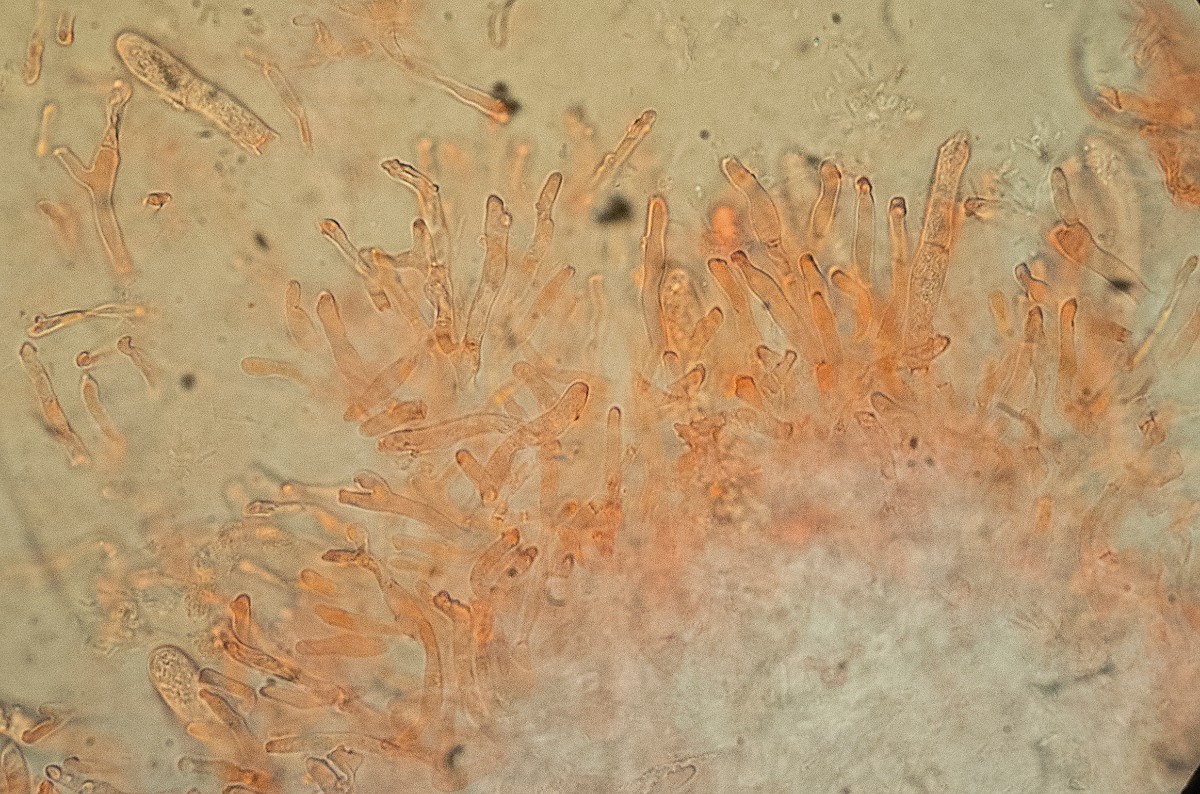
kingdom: Fungi
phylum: Basidiomycota
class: Agaricomycetes
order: Russulales
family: Russulaceae
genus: Russula
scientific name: Russula
